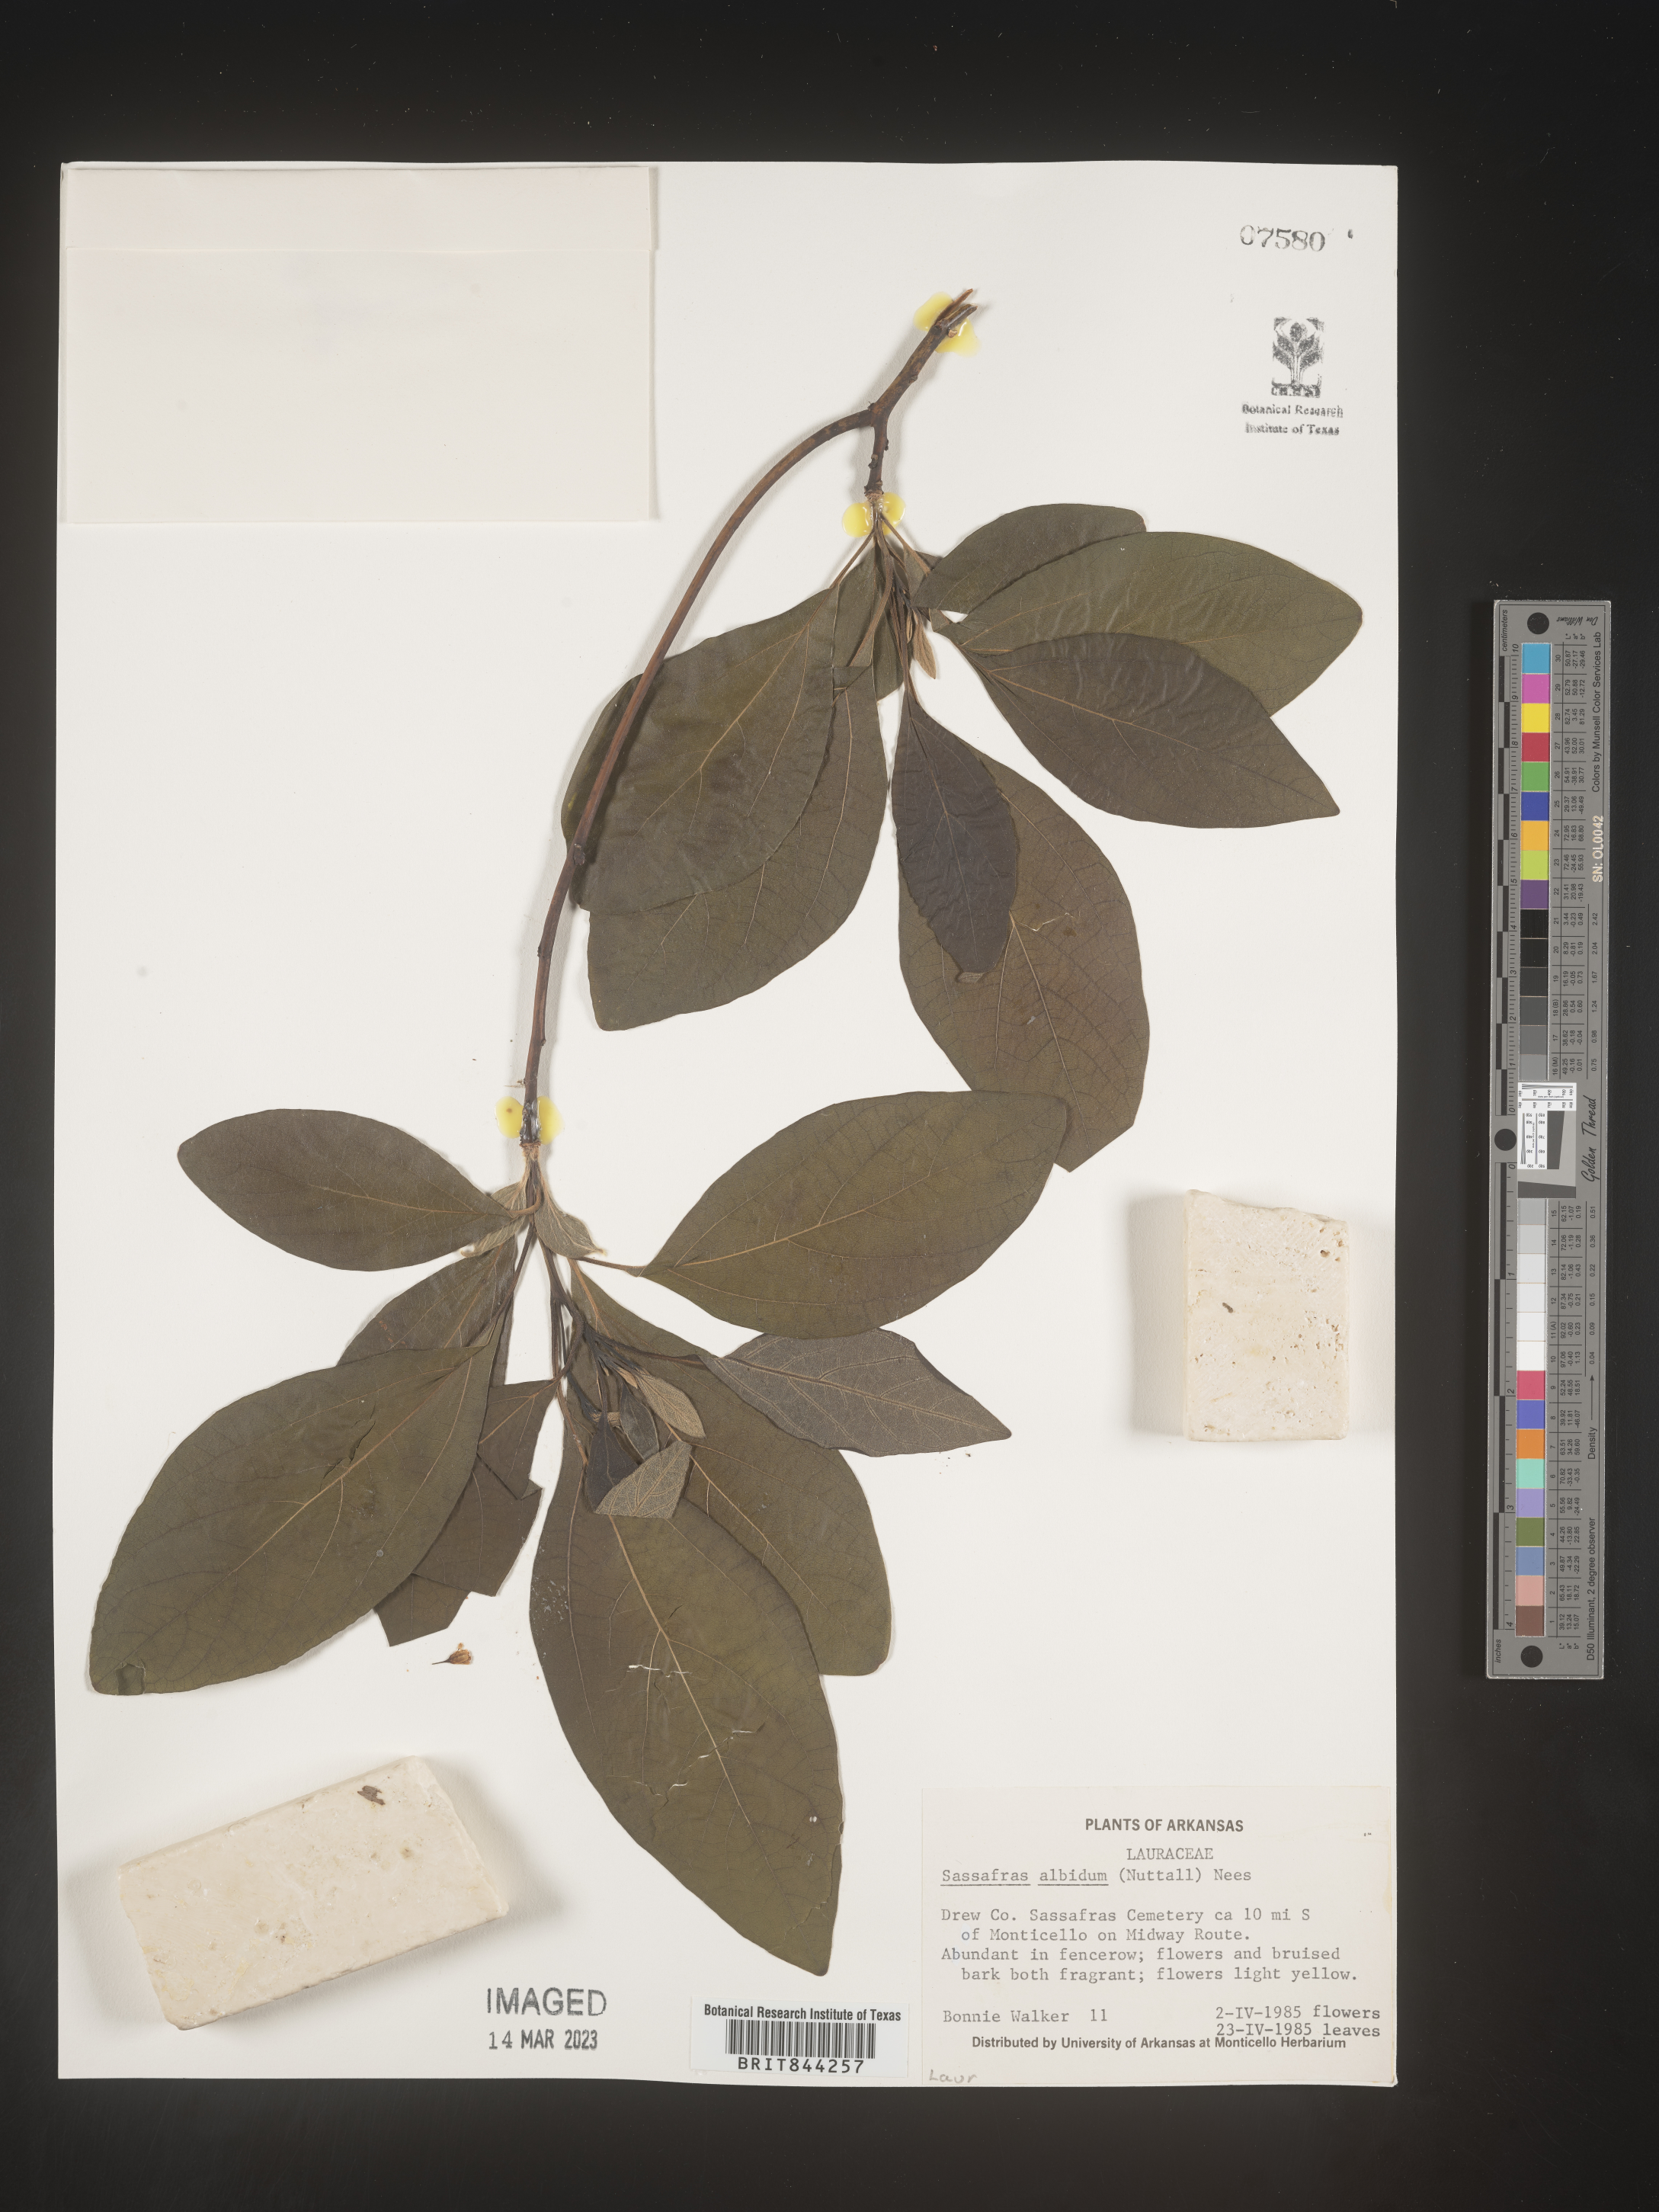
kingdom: Plantae
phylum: Tracheophyta
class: Magnoliopsida
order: Laurales
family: Lauraceae
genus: Sassafras
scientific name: Sassafras albidum
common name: Sassafras
